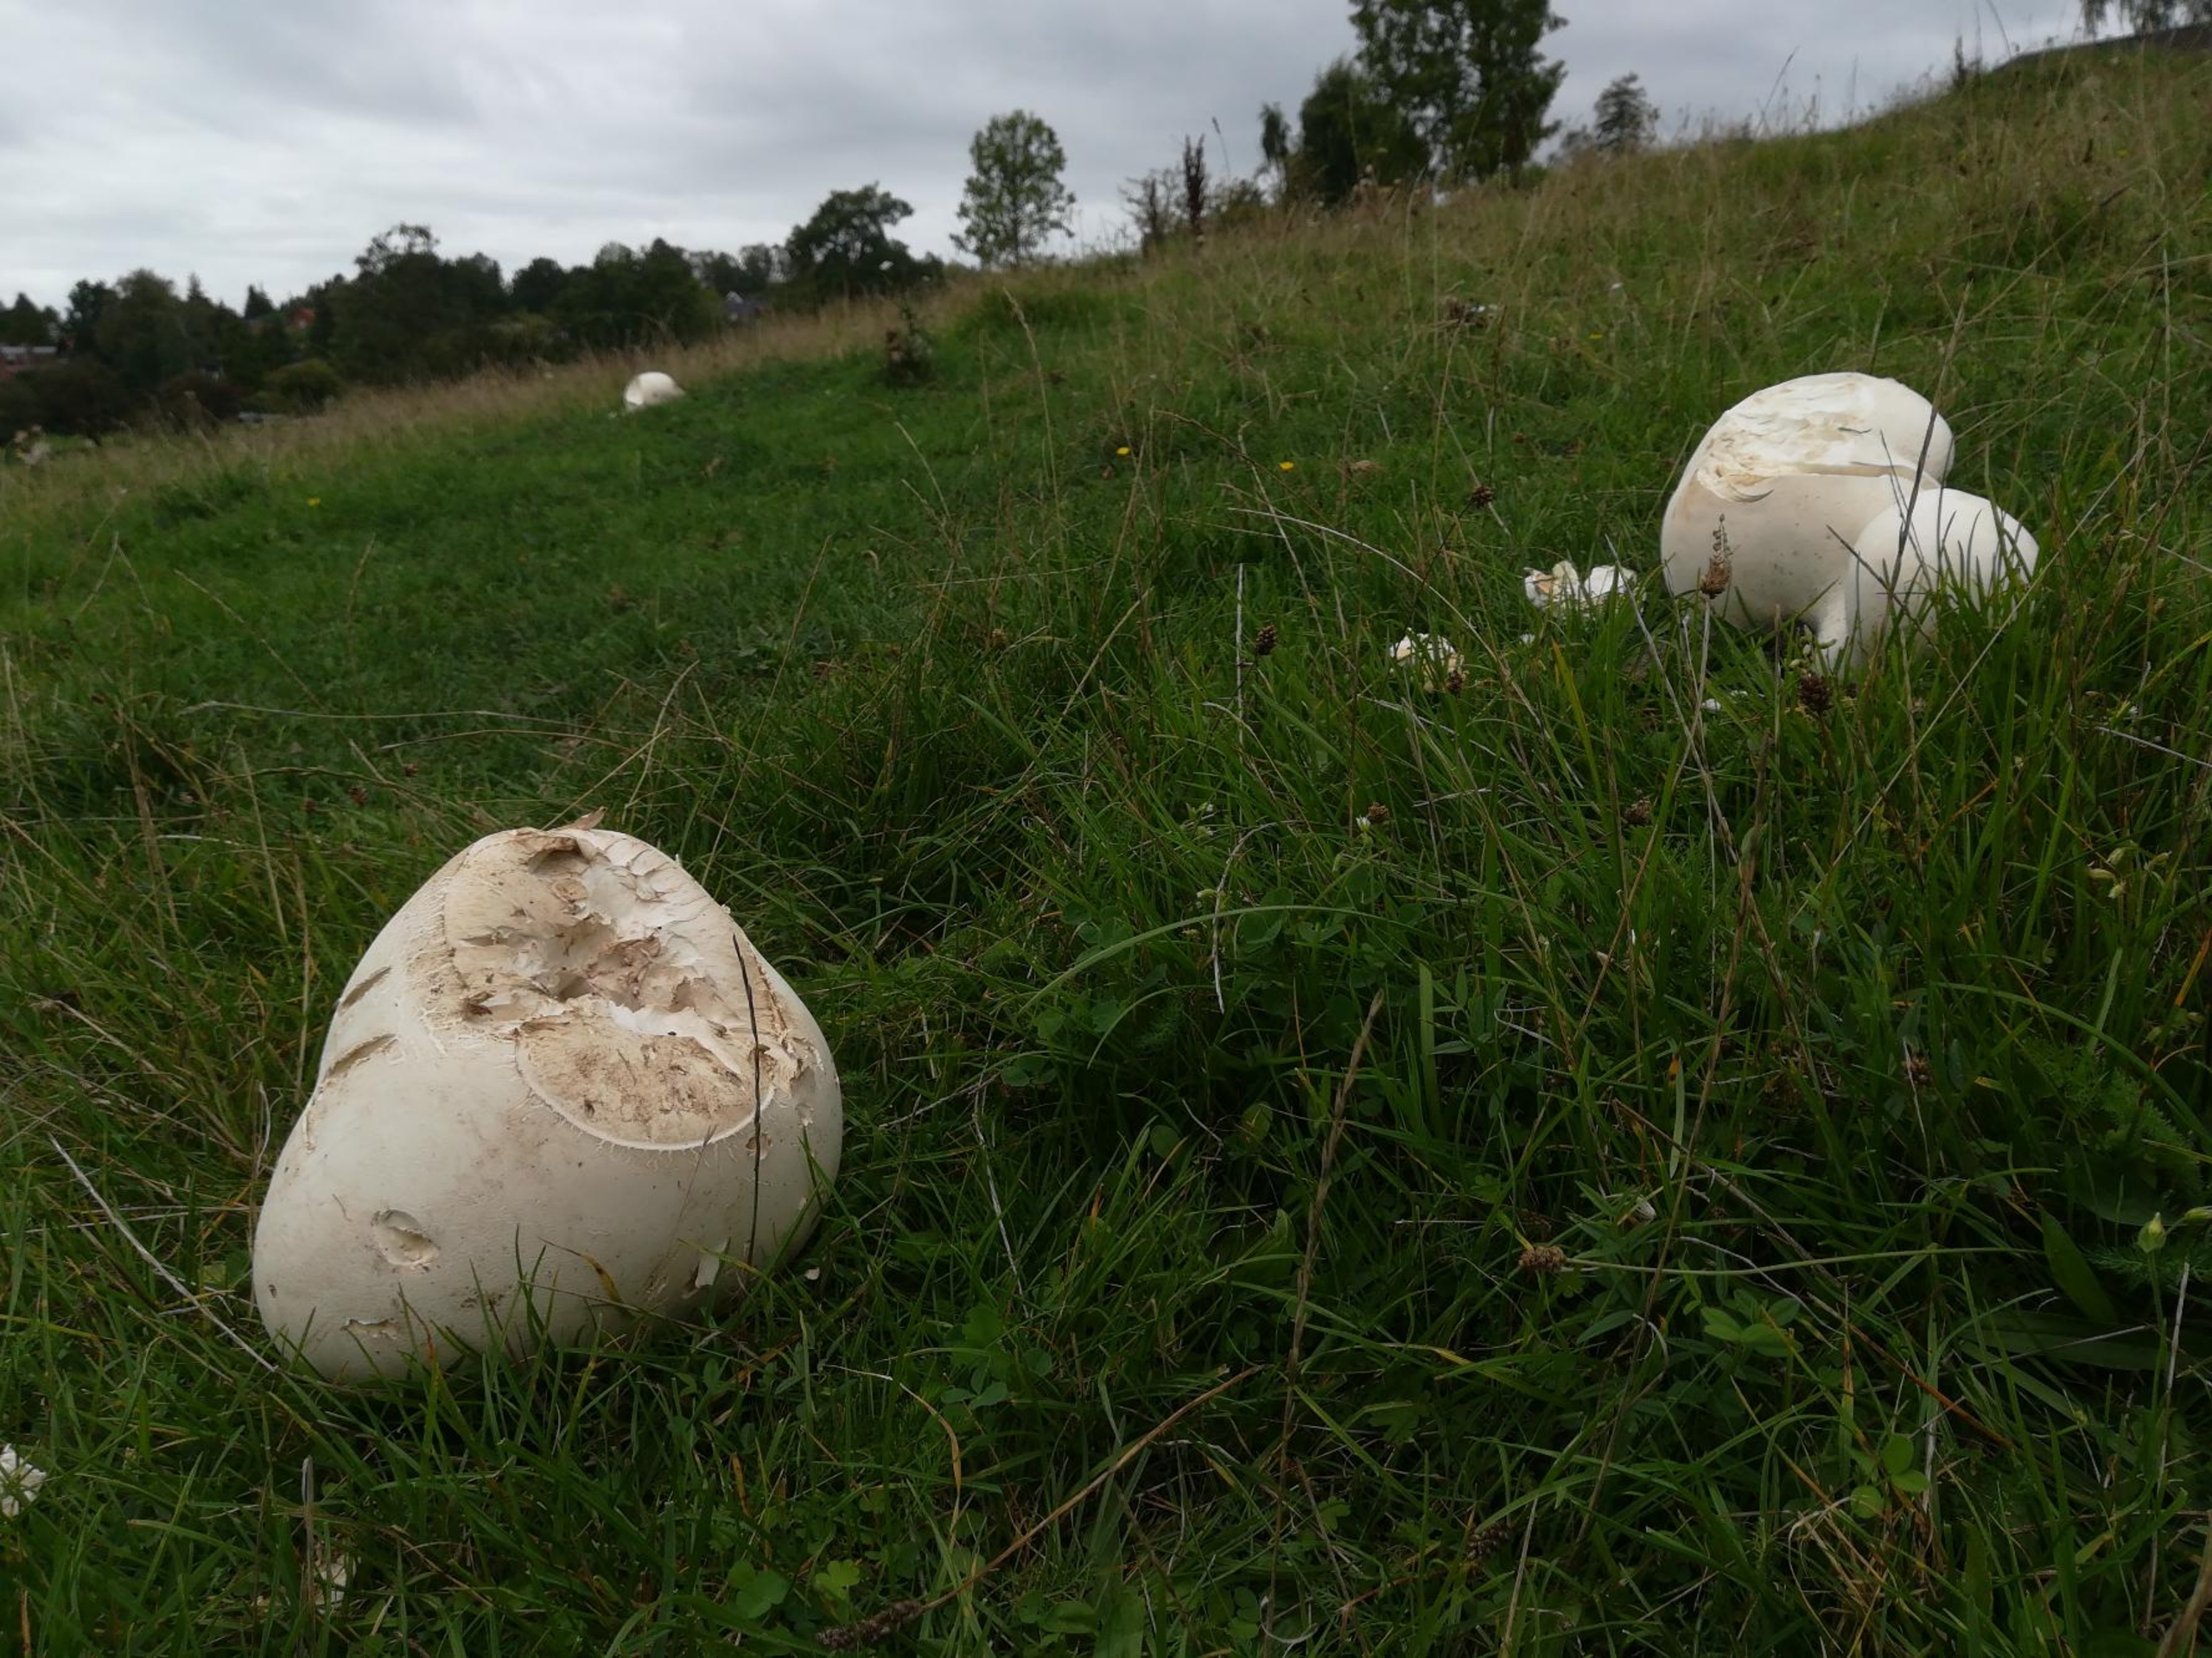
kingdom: Fungi
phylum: Basidiomycota
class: Agaricomycetes
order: Agaricales
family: Lycoperdaceae
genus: Calvatia
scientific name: Calvatia gigantea
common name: Kæmpestøvbold
